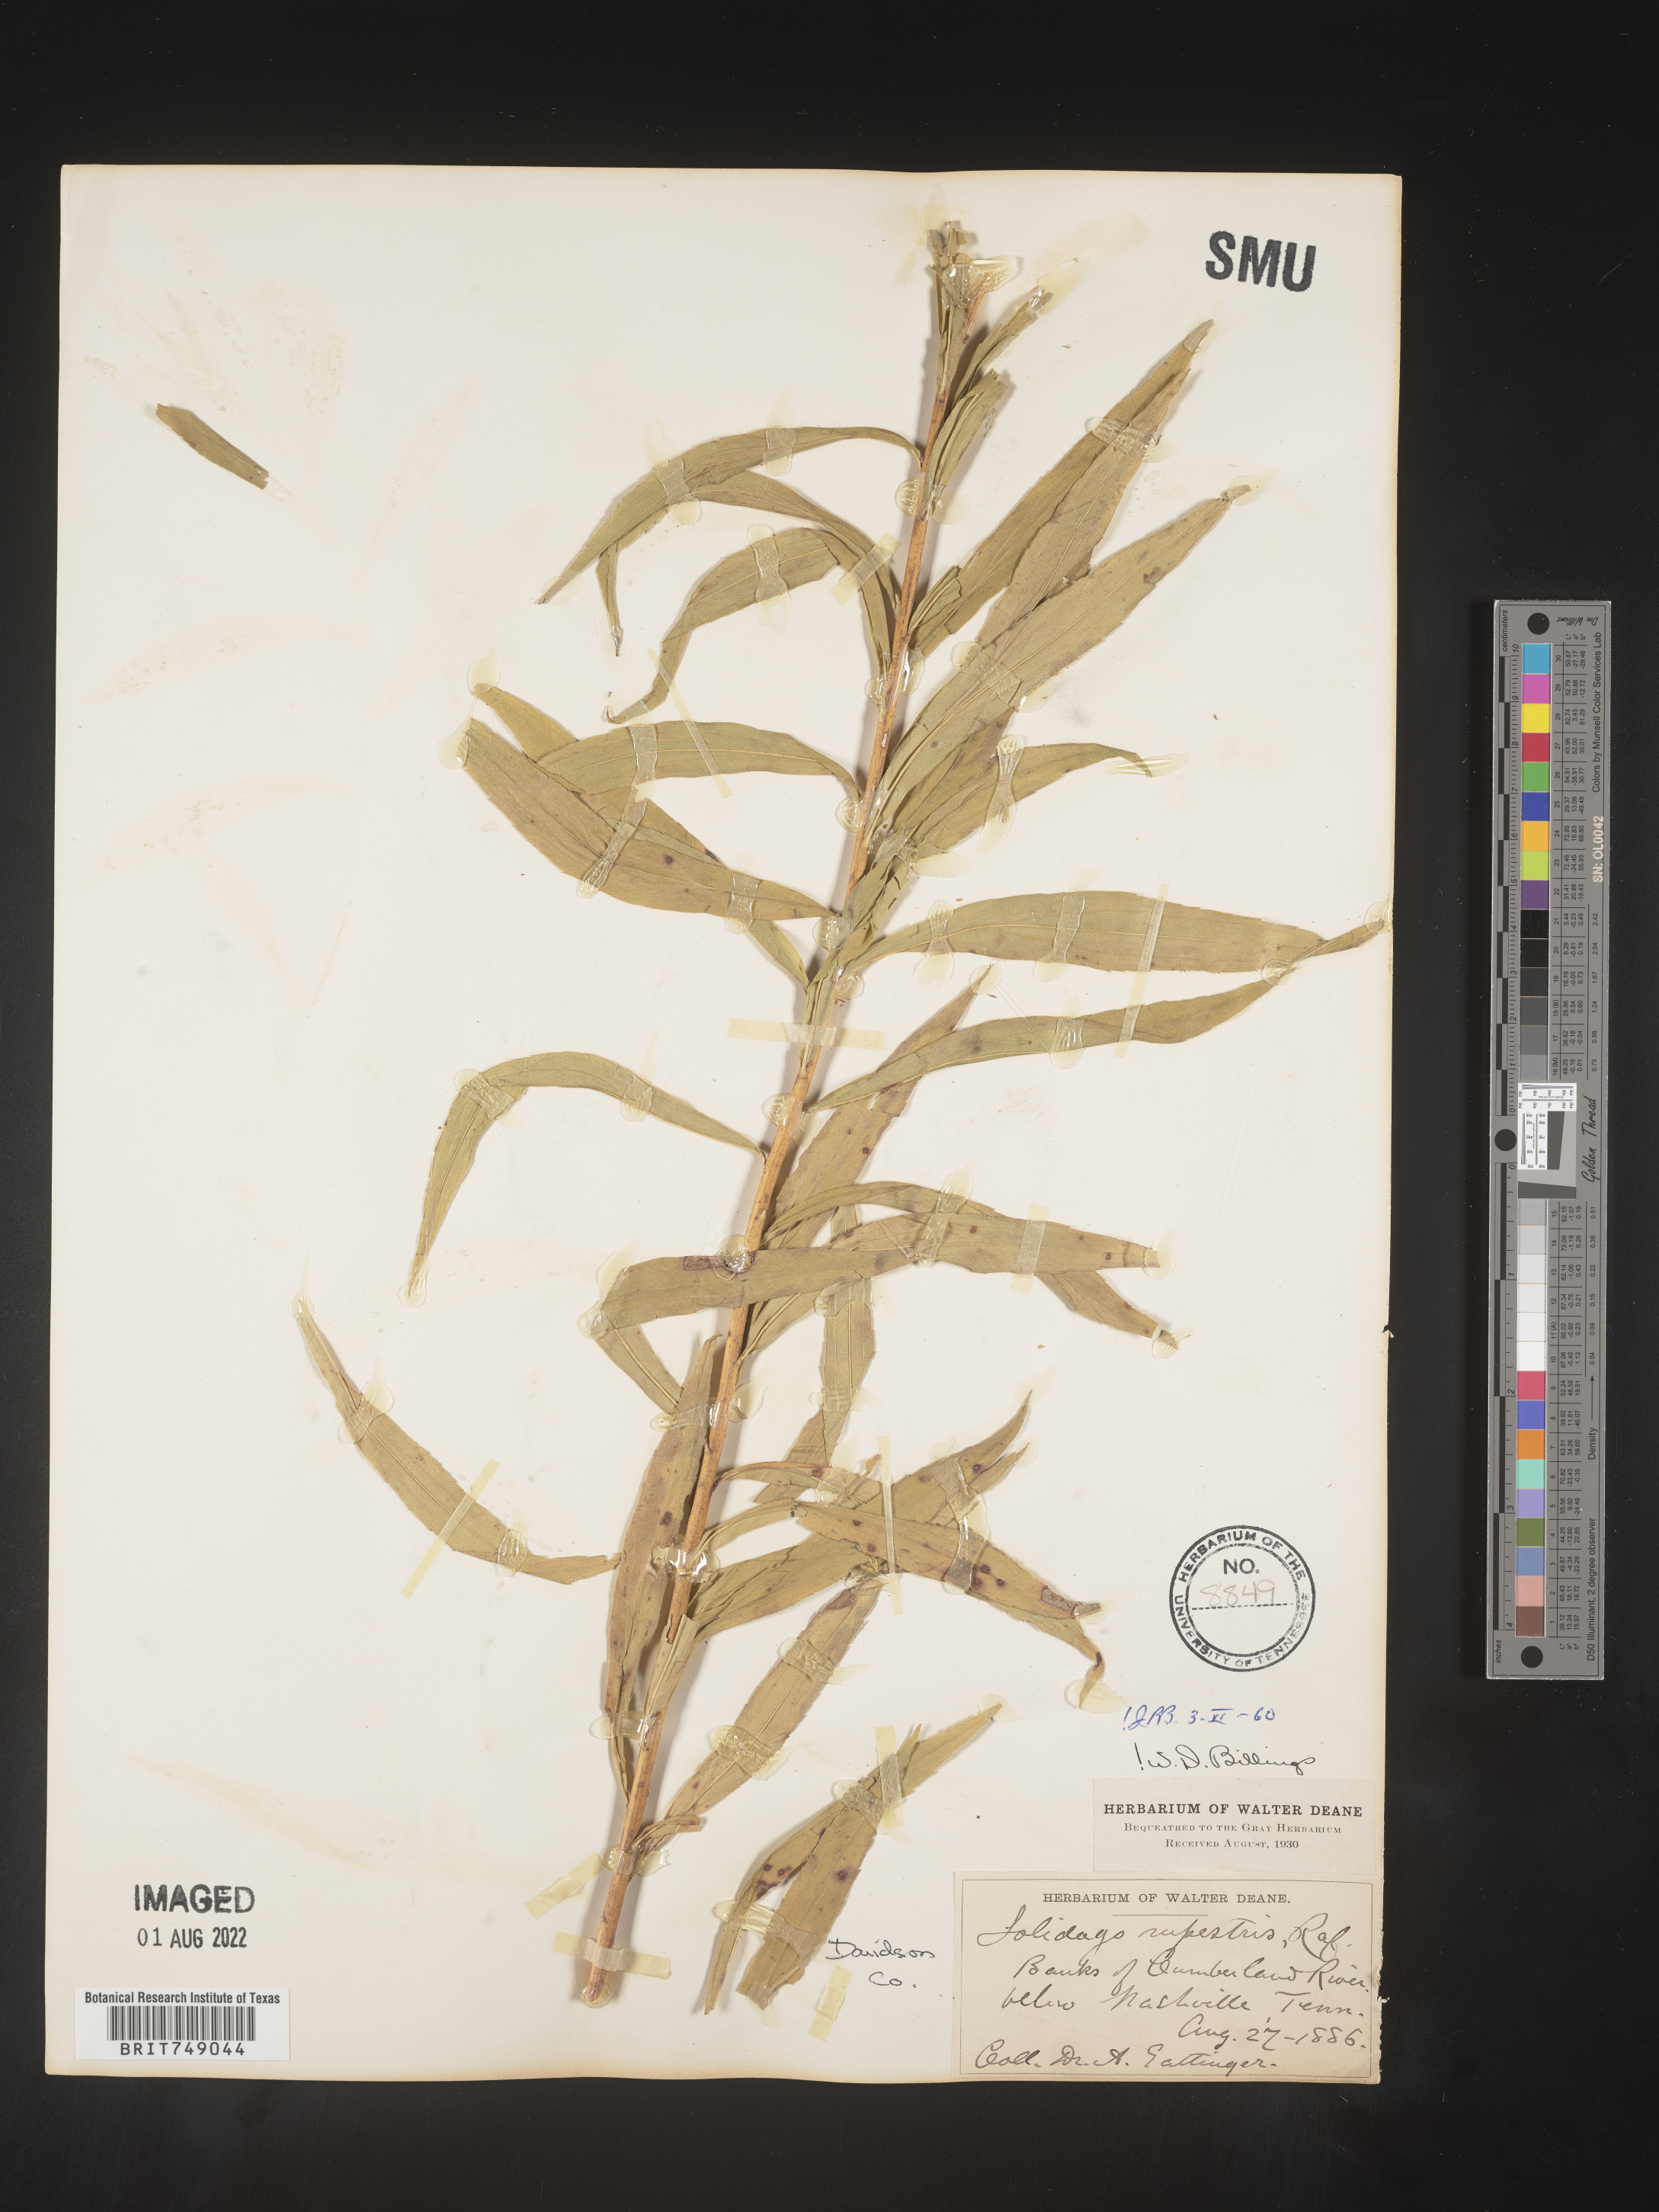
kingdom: Plantae
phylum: Tracheophyta
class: Magnoliopsida
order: Asterales
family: Asteraceae
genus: Solidago
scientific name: Solidago rupestris
